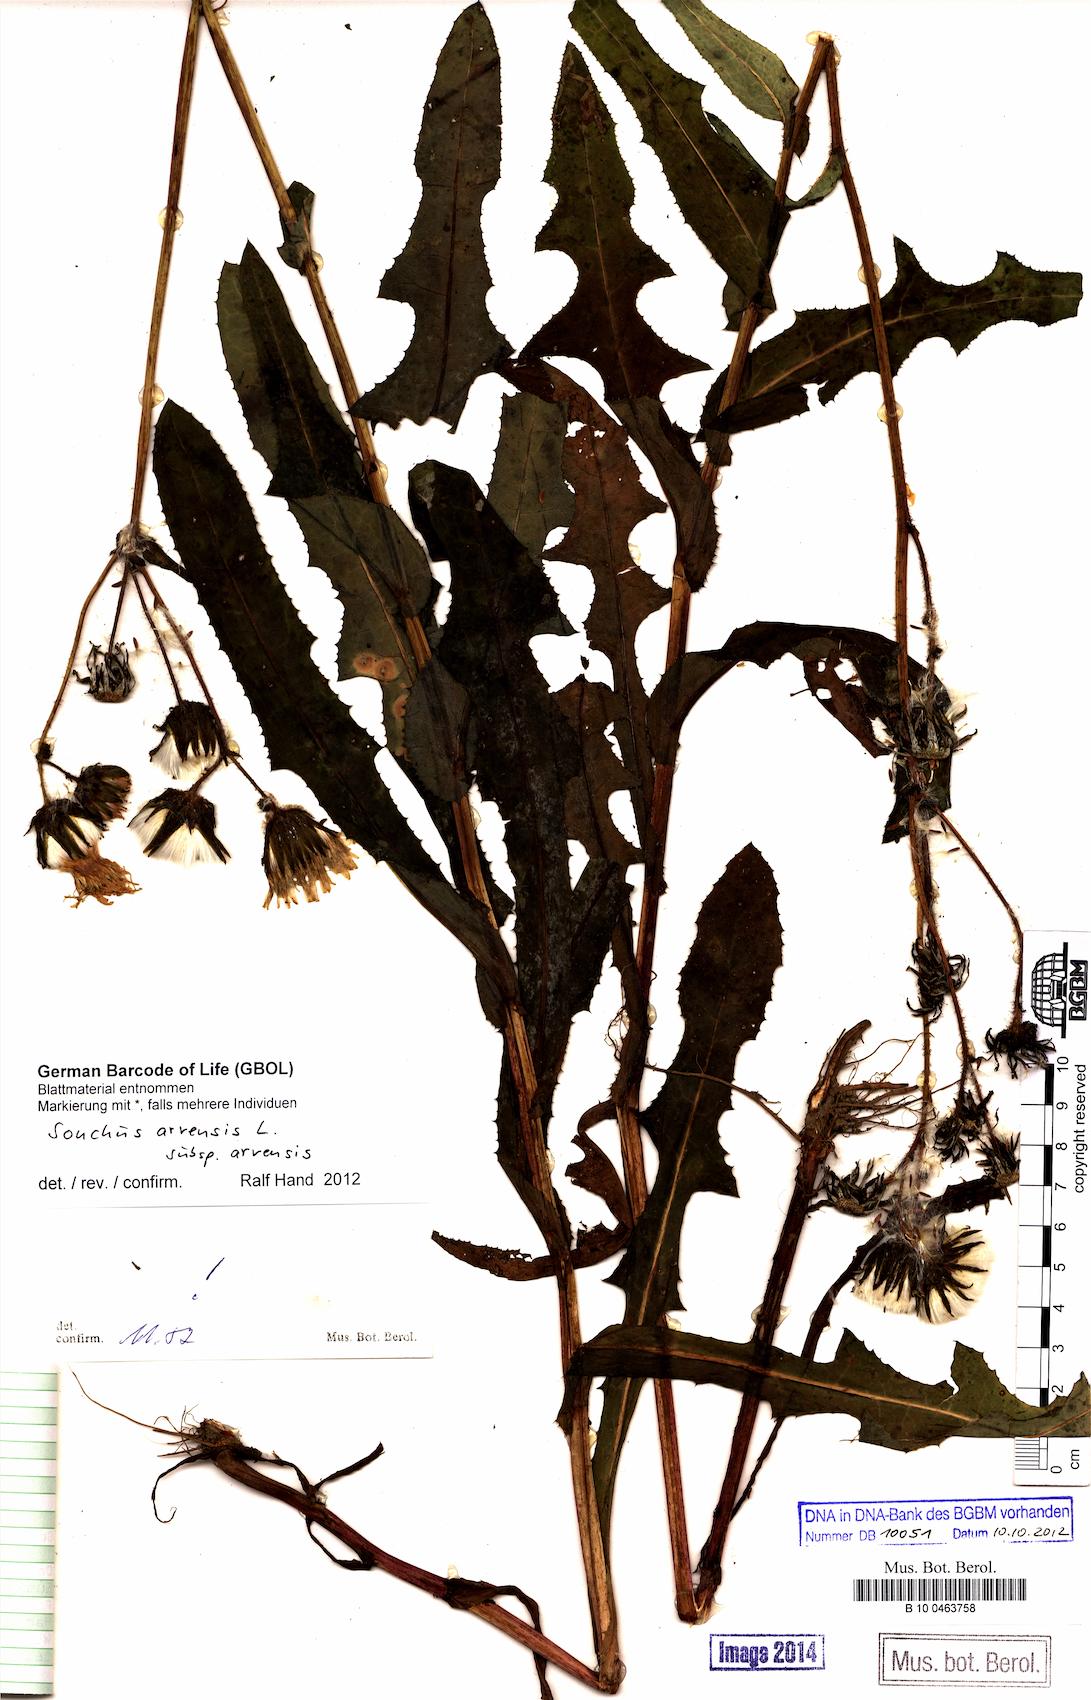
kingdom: Plantae
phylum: Tracheophyta
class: Magnoliopsida
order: Asterales
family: Asteraceae
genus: Sonchus
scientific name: Sonchus arvensis
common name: Perennial sow-thistle
